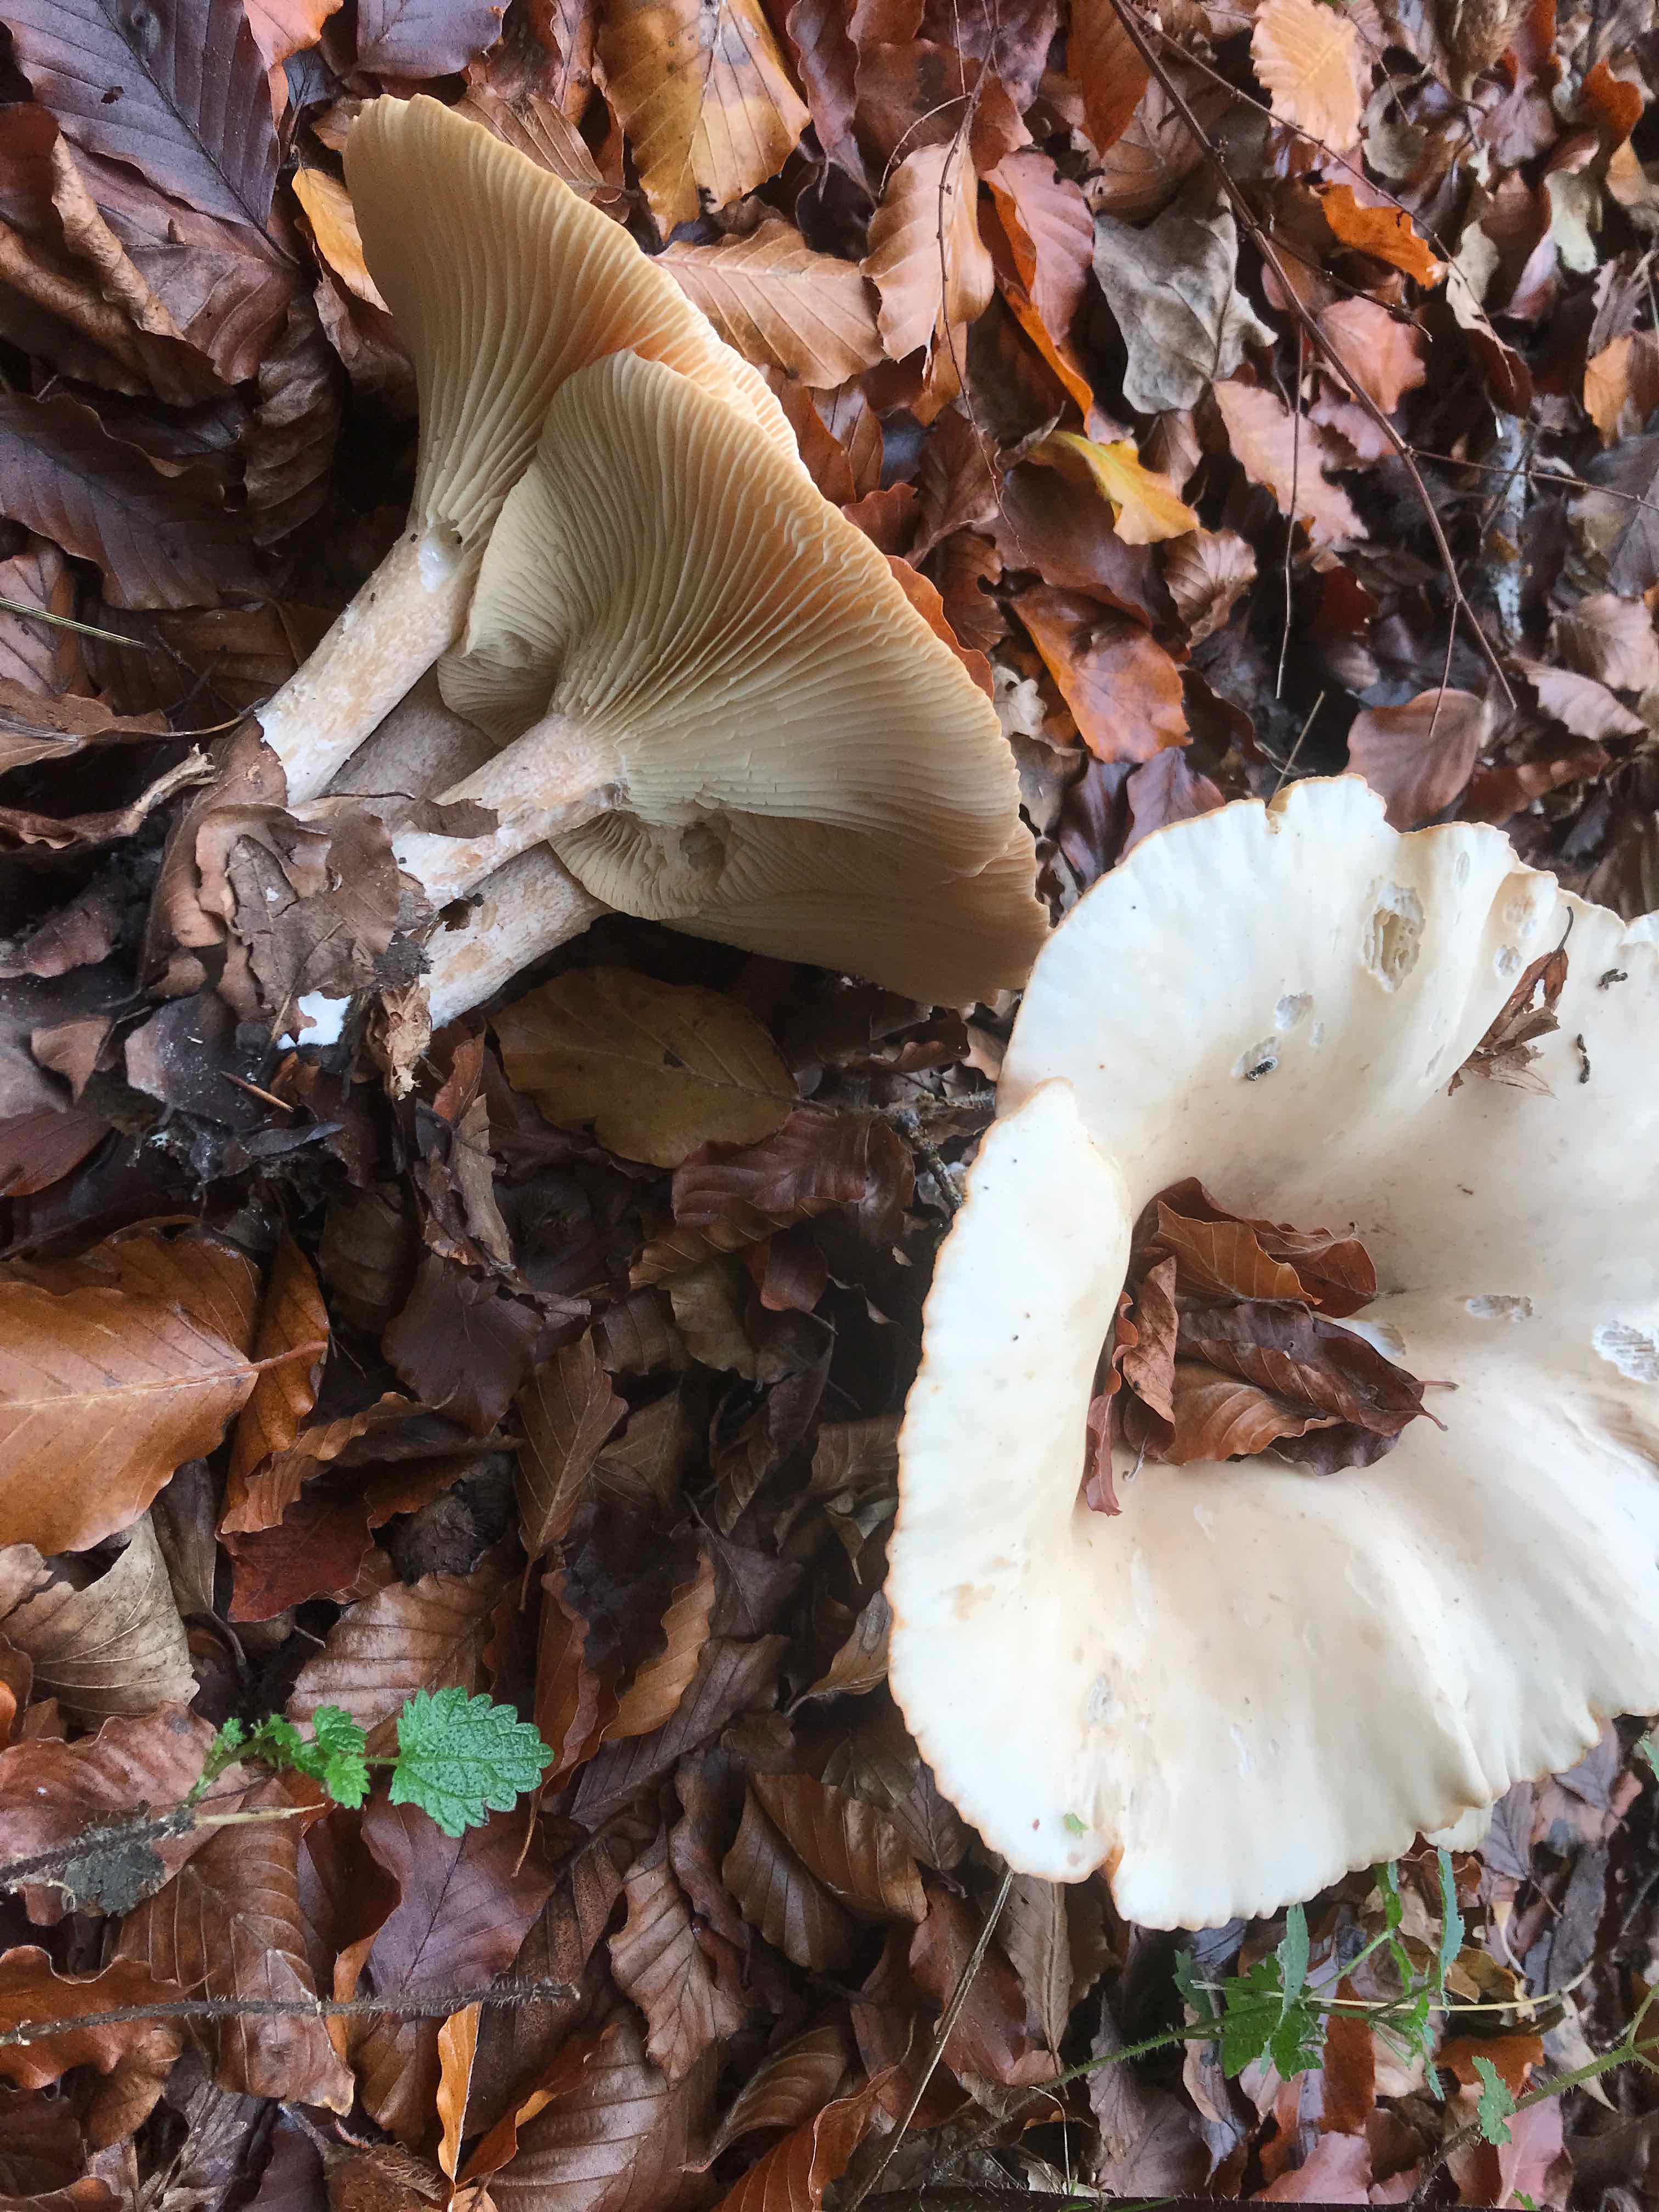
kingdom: Fungi
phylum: Basidiomycota
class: Agaricomycetes
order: Agaricales
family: Tricholomataceae
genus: Infundibulicybe
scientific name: Infundibulicybe geotropa
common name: stor tragthat
